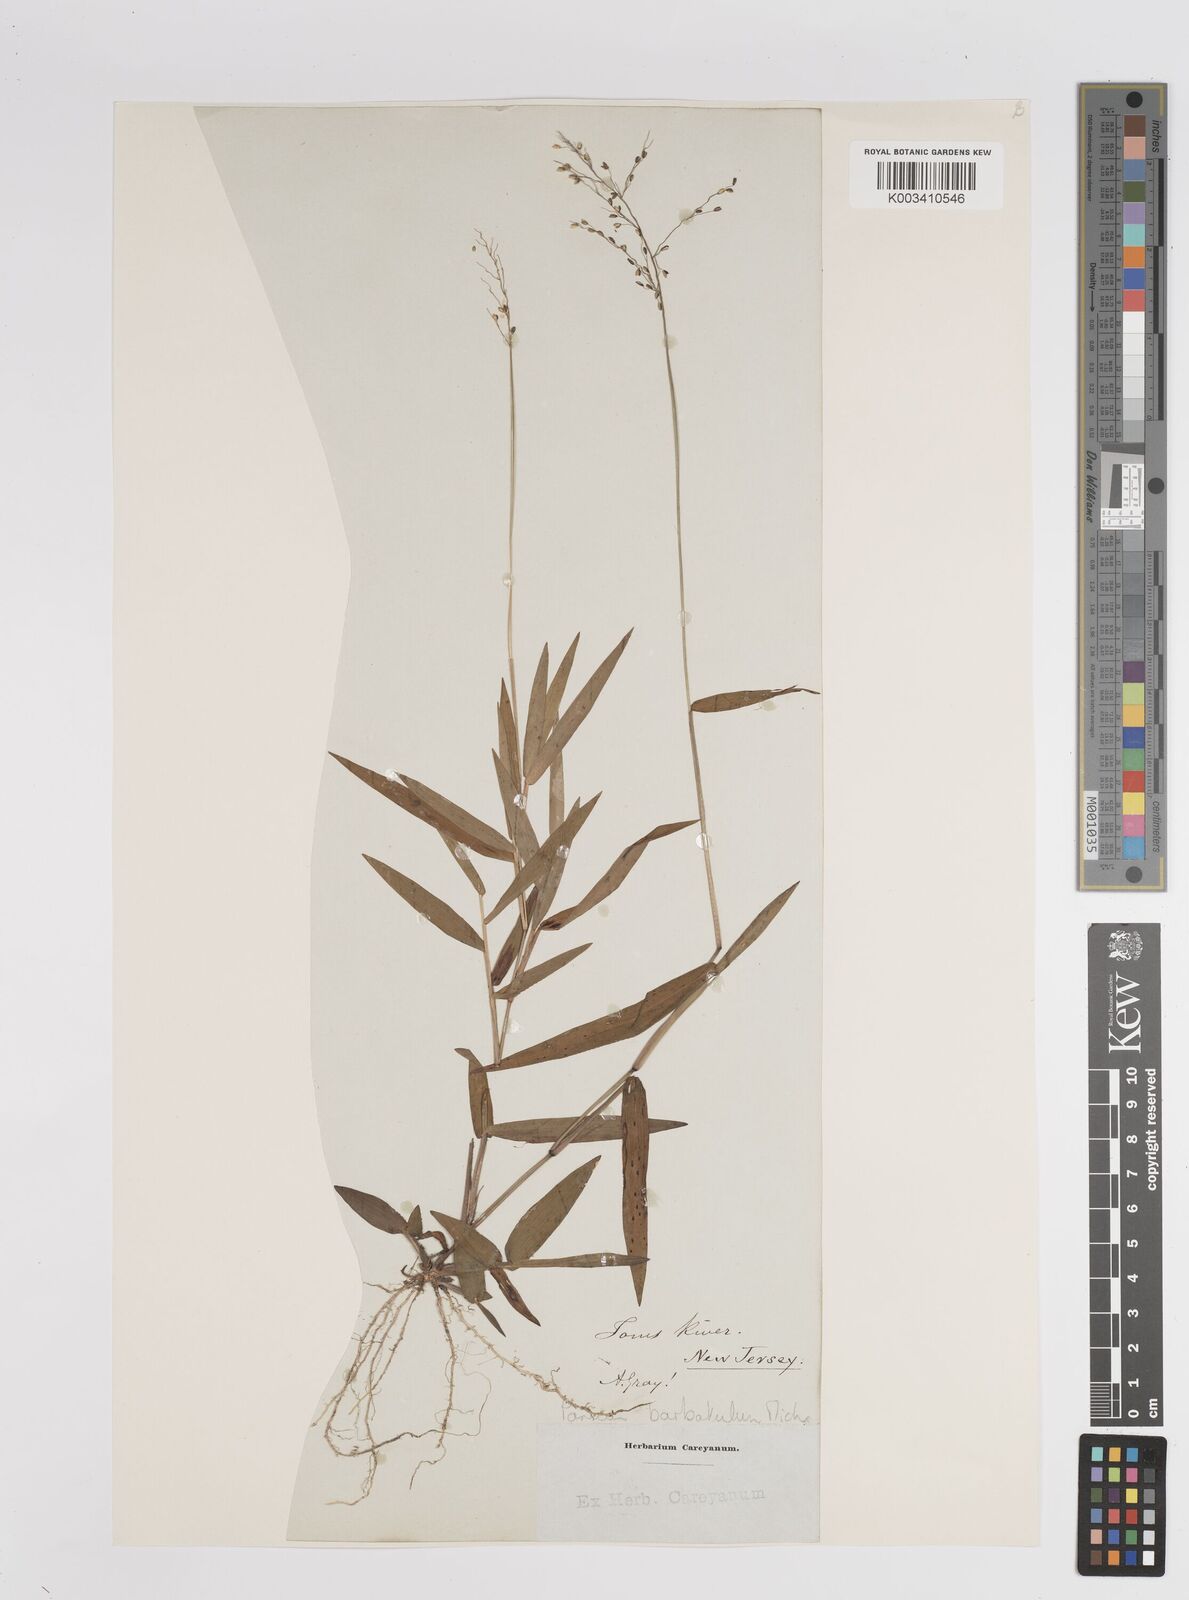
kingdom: Plantae
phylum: Tracheophyta
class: Liliopsida
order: Poales
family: Poaceae
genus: Dichanthelium
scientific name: Dichanthelium dichotomum
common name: Cypress panicgrass
